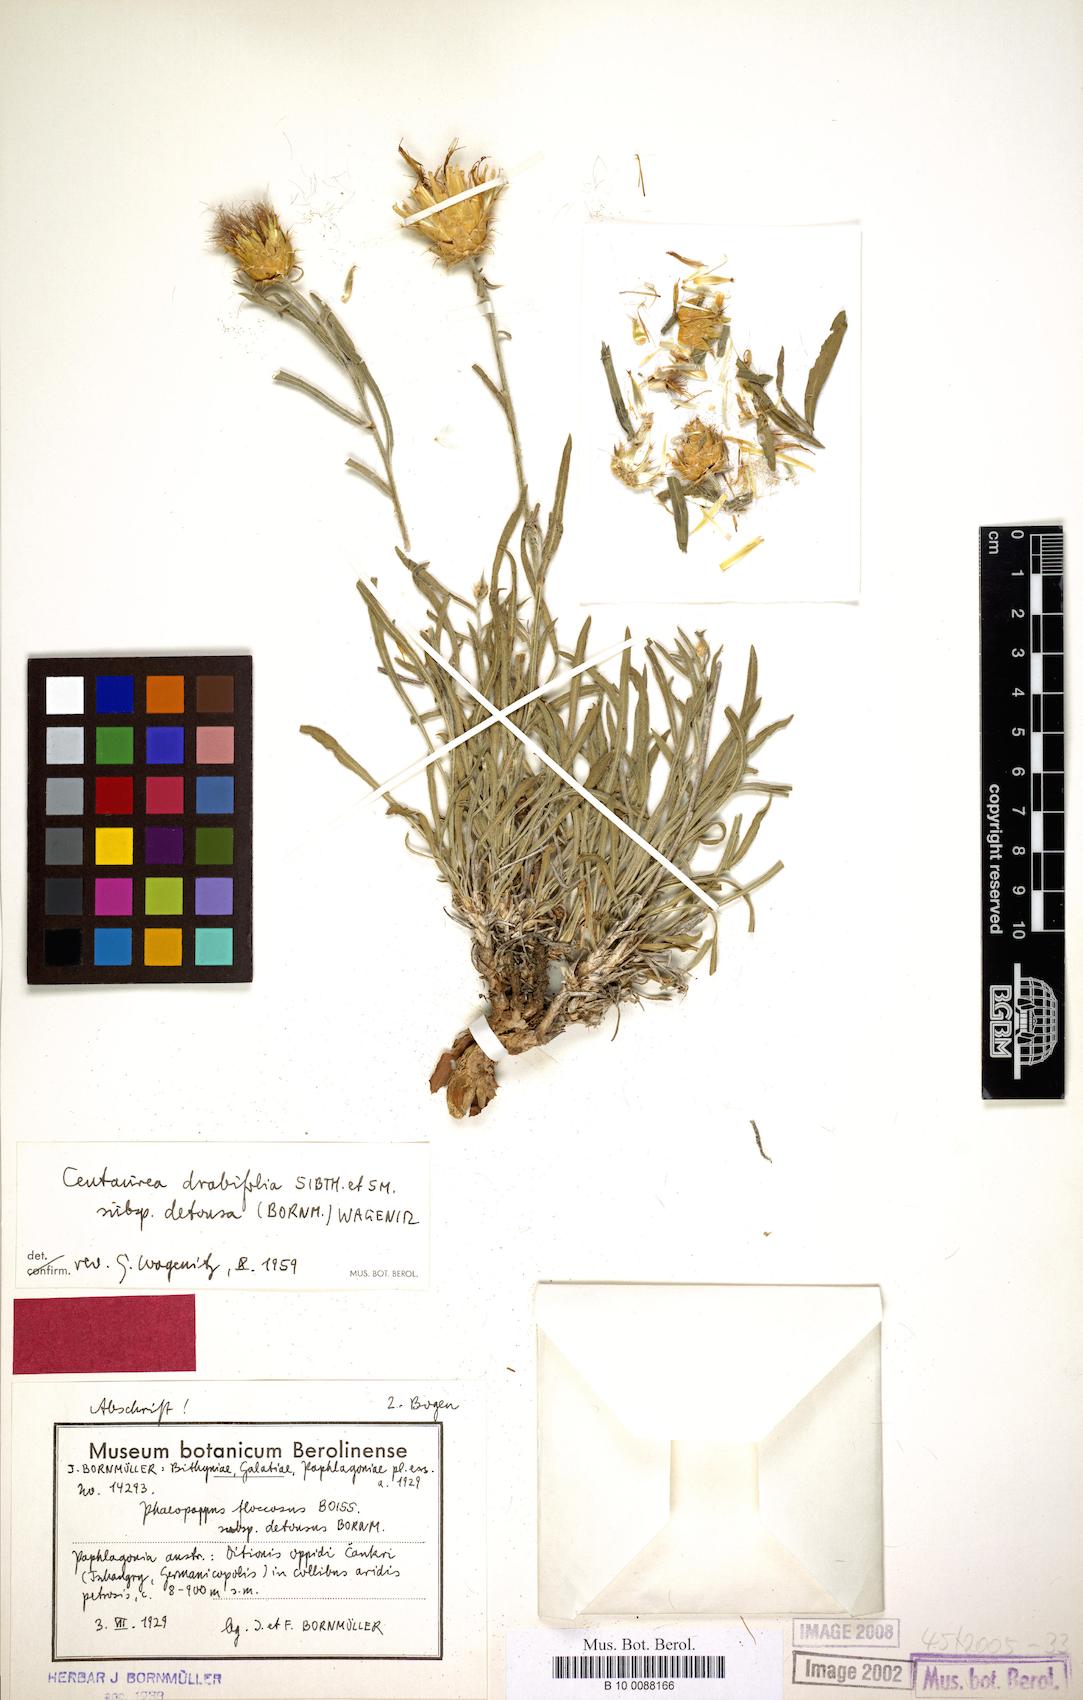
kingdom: Plantae
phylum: Tracheophyta
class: Magnoliopsida
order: Asterales
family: Asteraceae
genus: Centaurea
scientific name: Centaurea kotschyi
